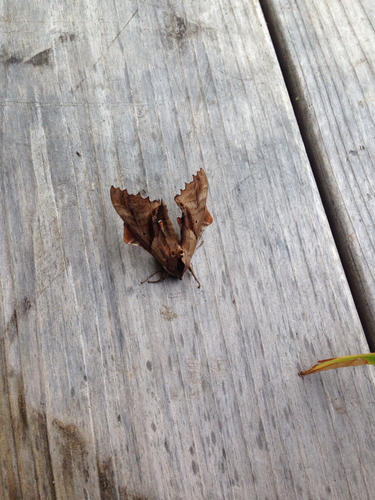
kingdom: Animalia
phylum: Arthropoda
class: Insecta
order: Lepidoptera
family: Sphingidae
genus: Paonias
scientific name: Paonias excaecata
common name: Blind-eyed sphinx
